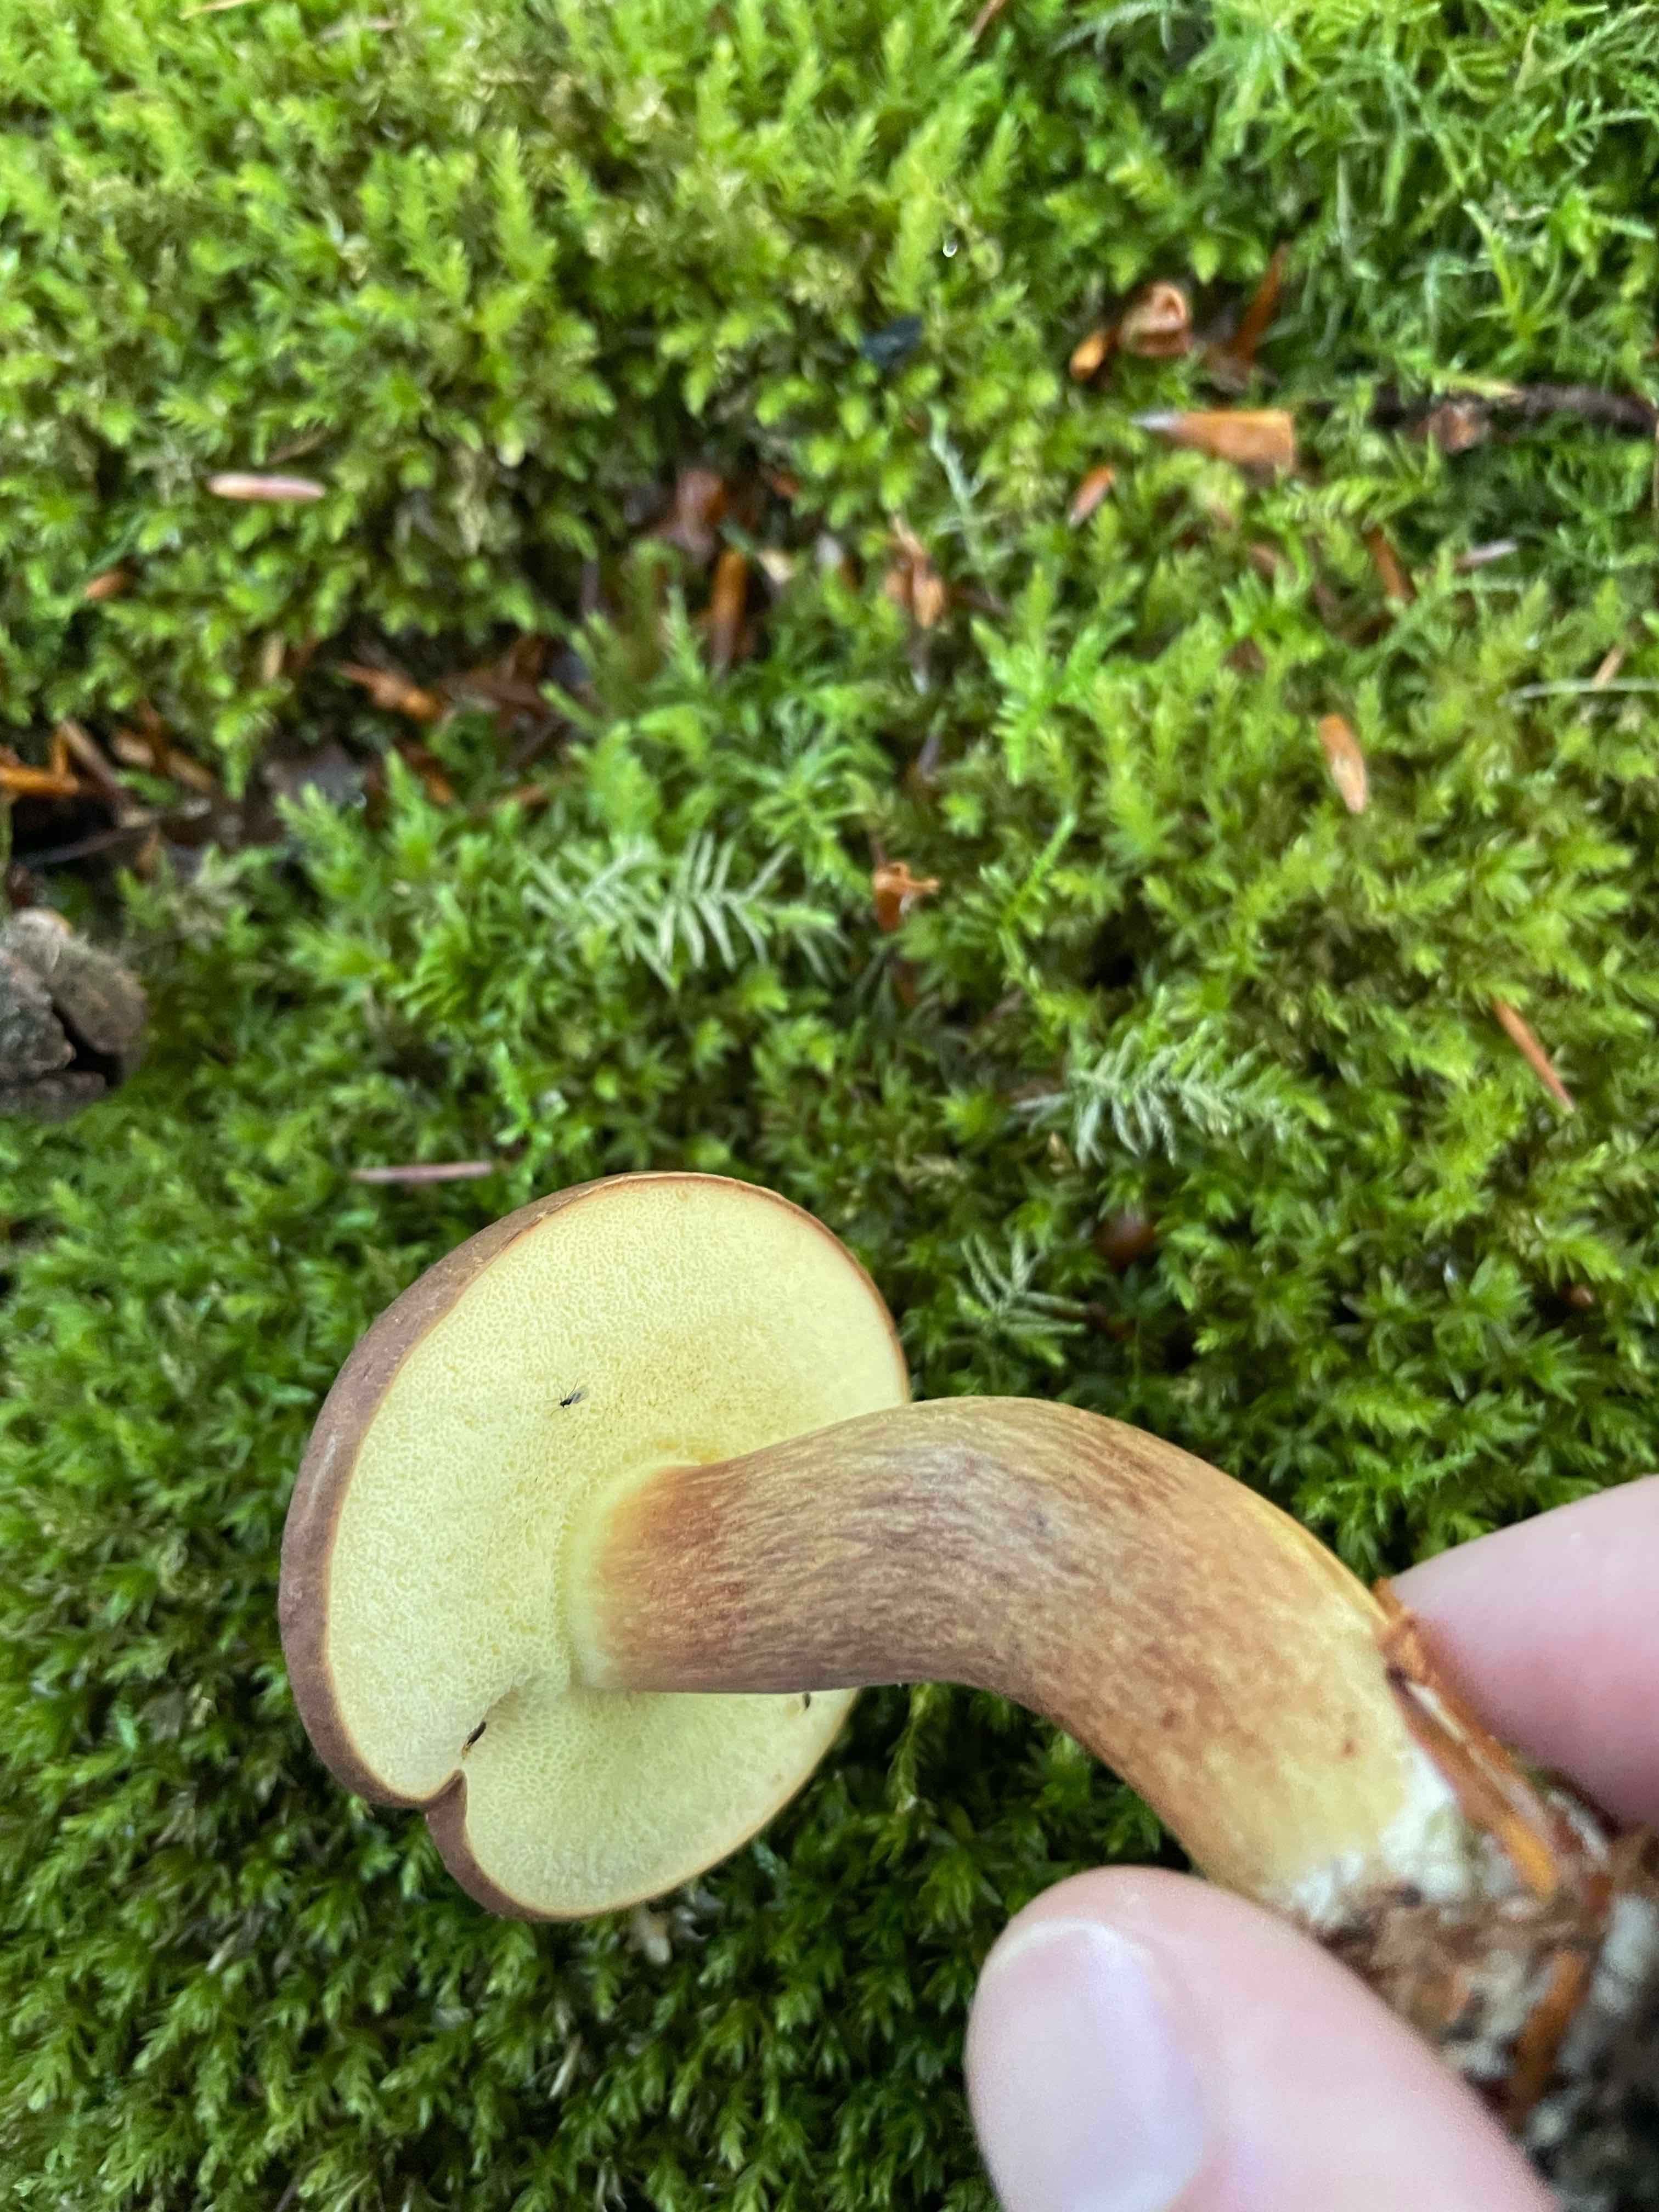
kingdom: Fungi
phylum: Basidiomycota
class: Agaricomycetes
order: Boletales
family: Boletaceae
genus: Imleria
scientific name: Imleria badia
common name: brunstokket rørhat
